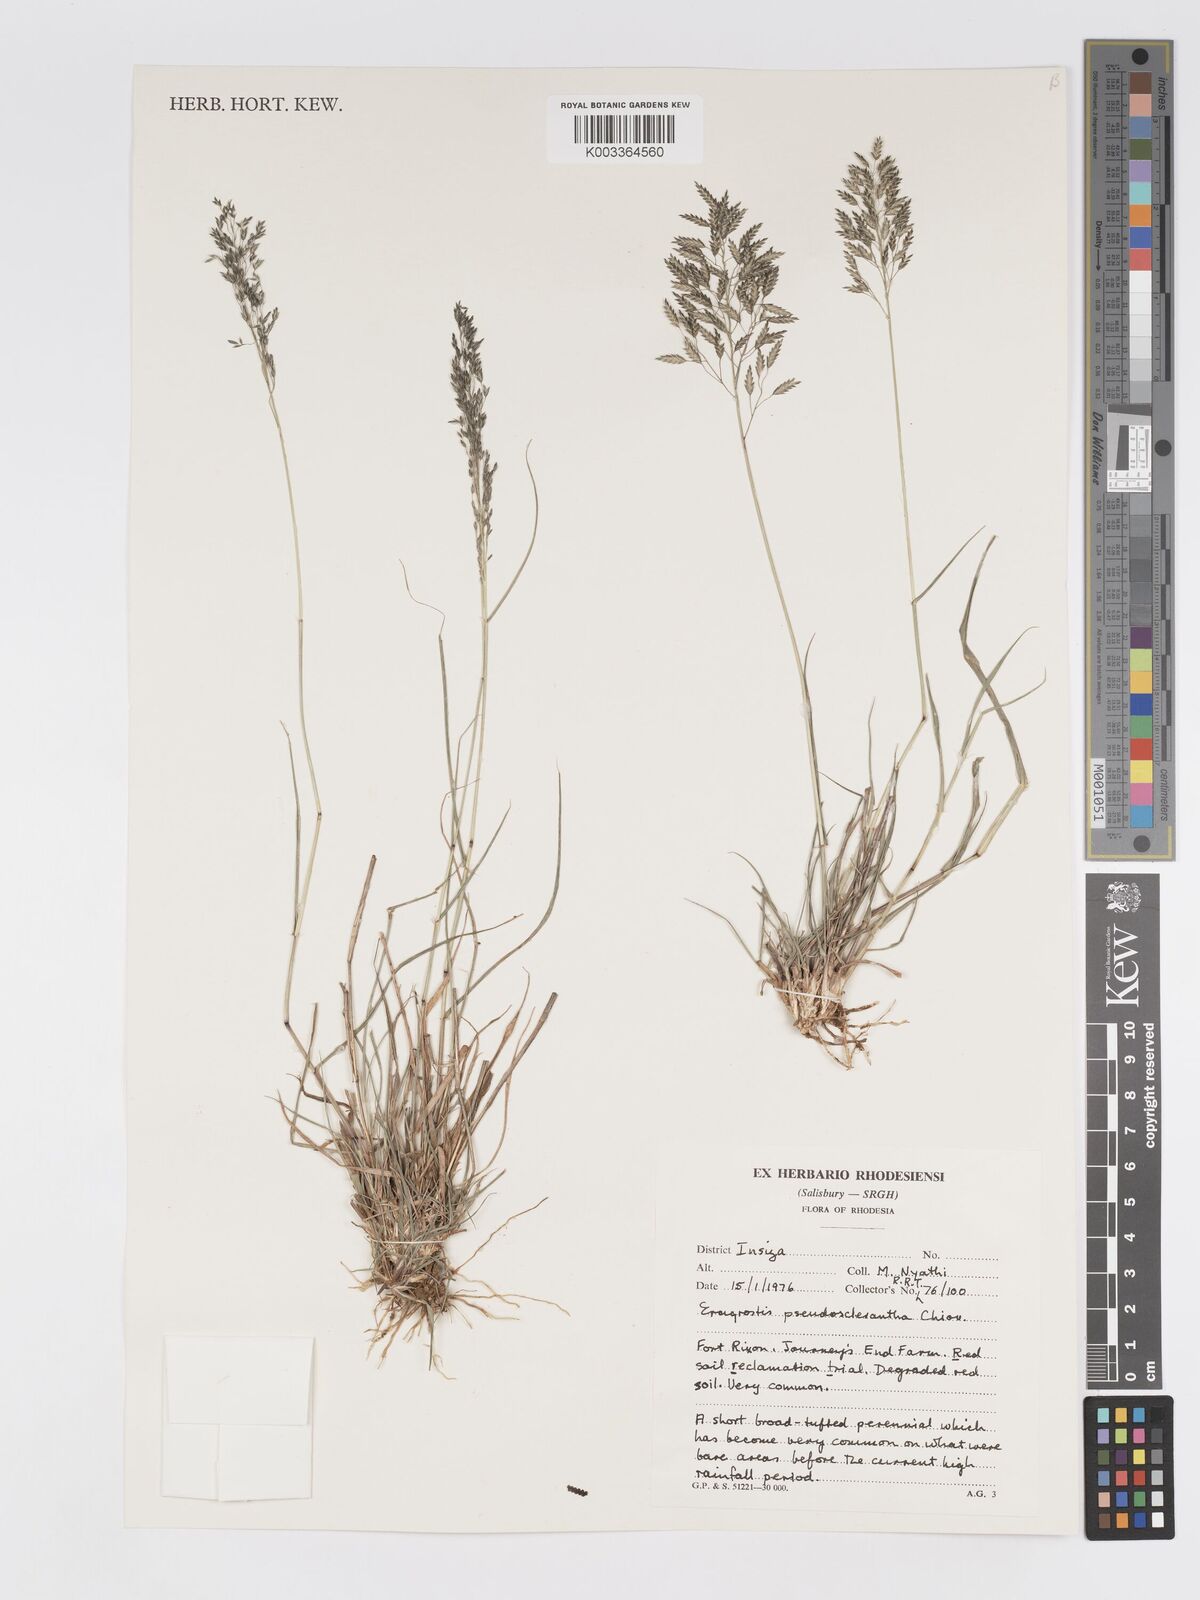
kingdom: Plantae
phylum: Tracheophyta
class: Liliopsida
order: Poales
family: Poaceae
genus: Eragrostis
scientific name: Eragrostis patentipilosa
